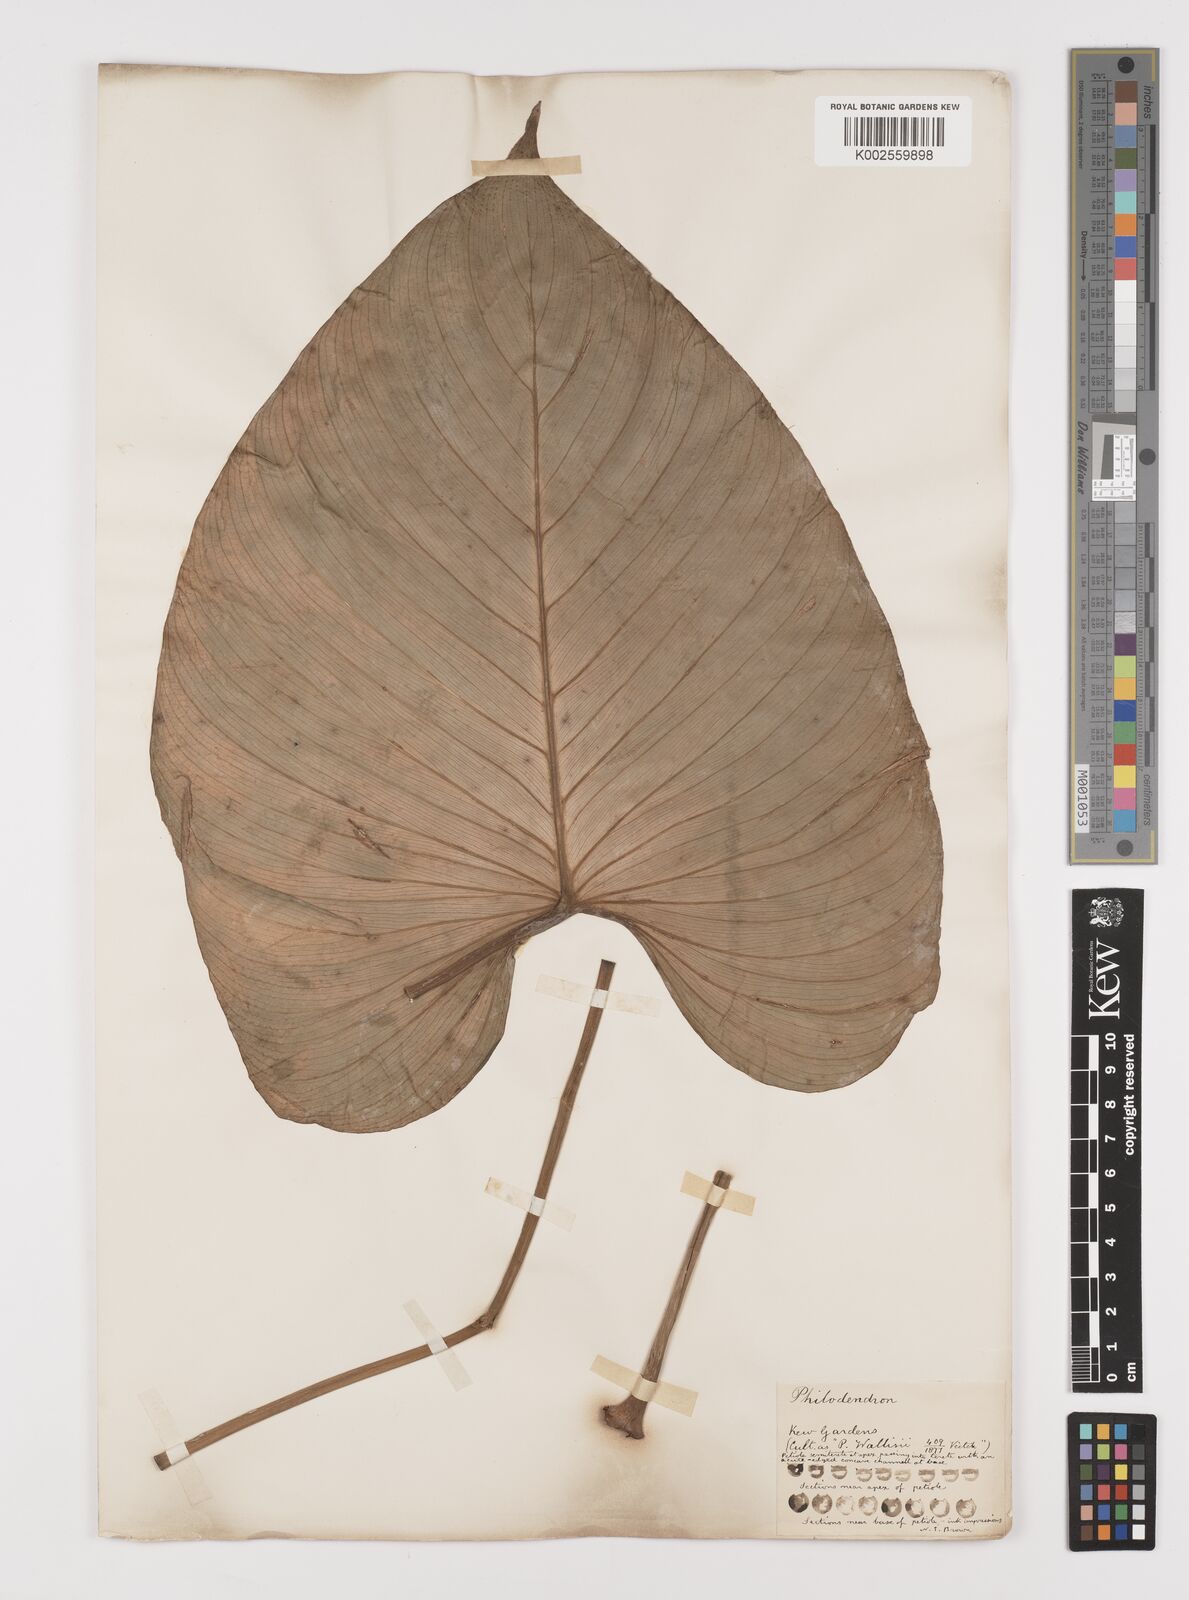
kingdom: Plantae
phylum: Tracheophyta
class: Liliopsida
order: Alismatales
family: Araceae
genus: Philodendron
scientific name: Philodendron
